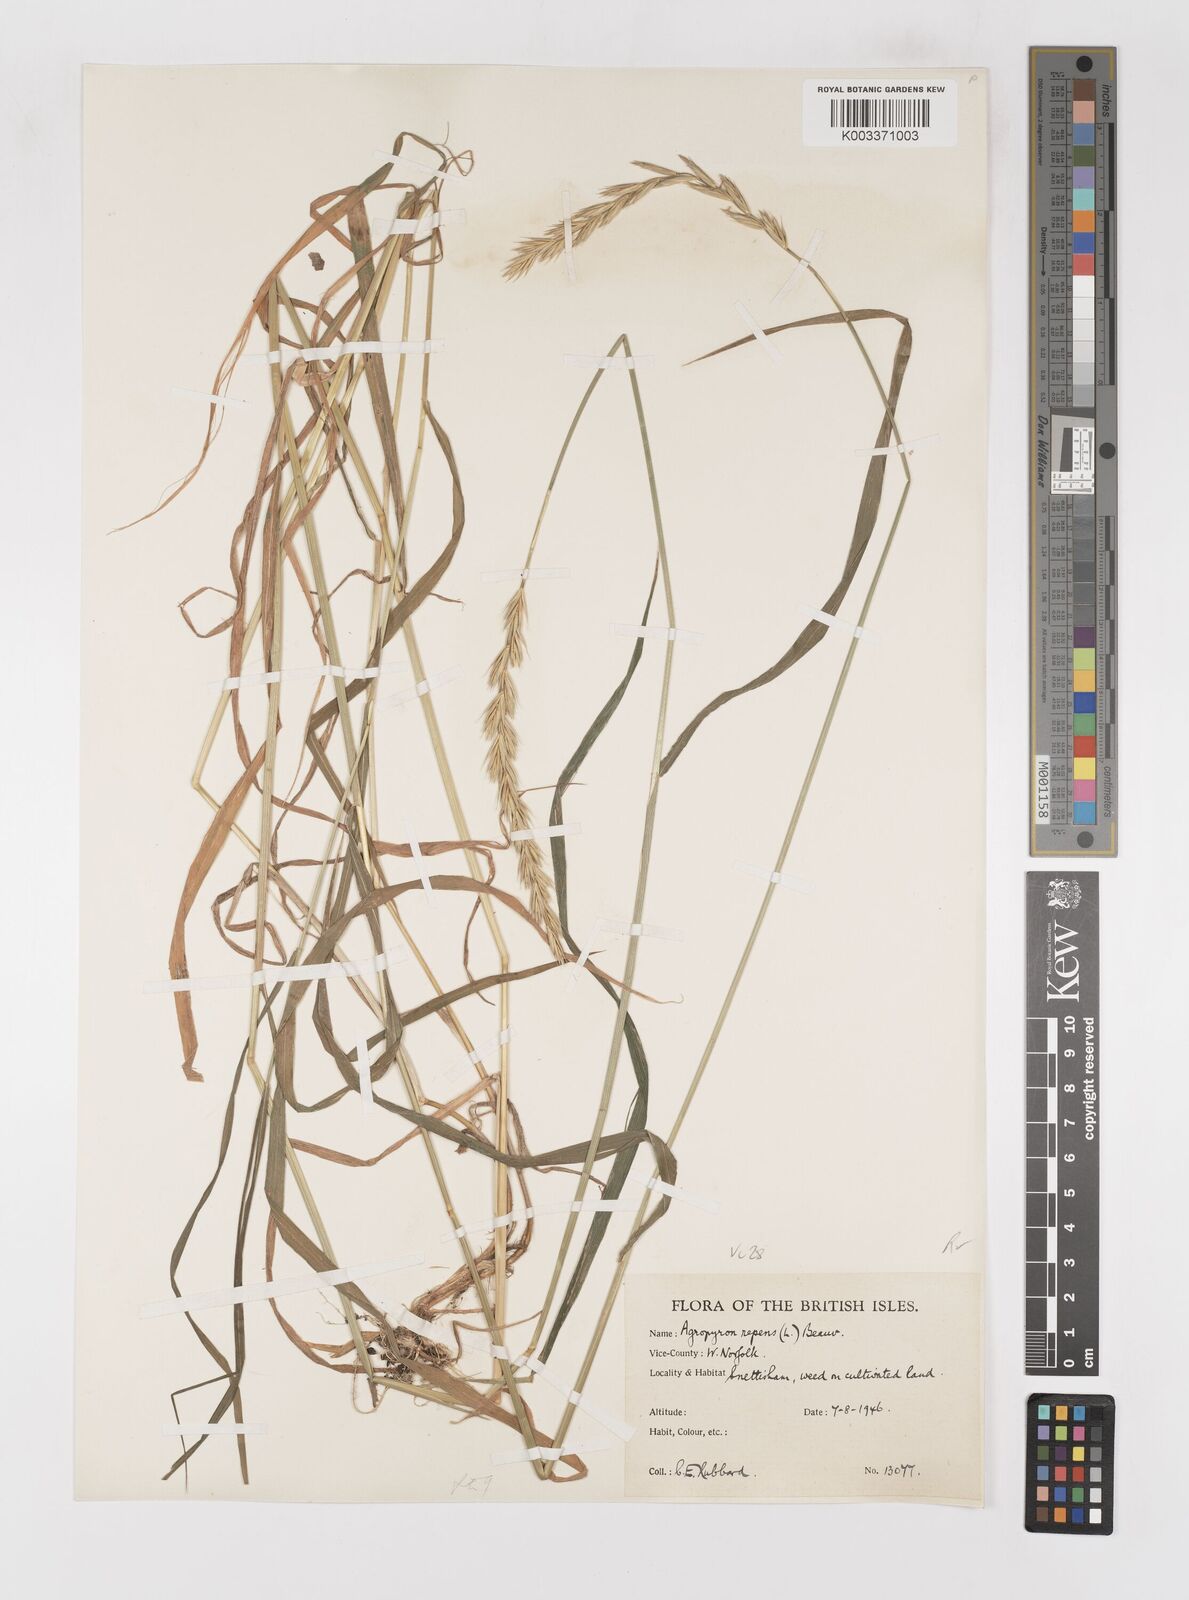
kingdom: Plantae
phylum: Tracheophyta
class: Liliopsida
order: Poales
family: Poaceae
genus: Elymus
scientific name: Elymus repens
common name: Quackgrass
